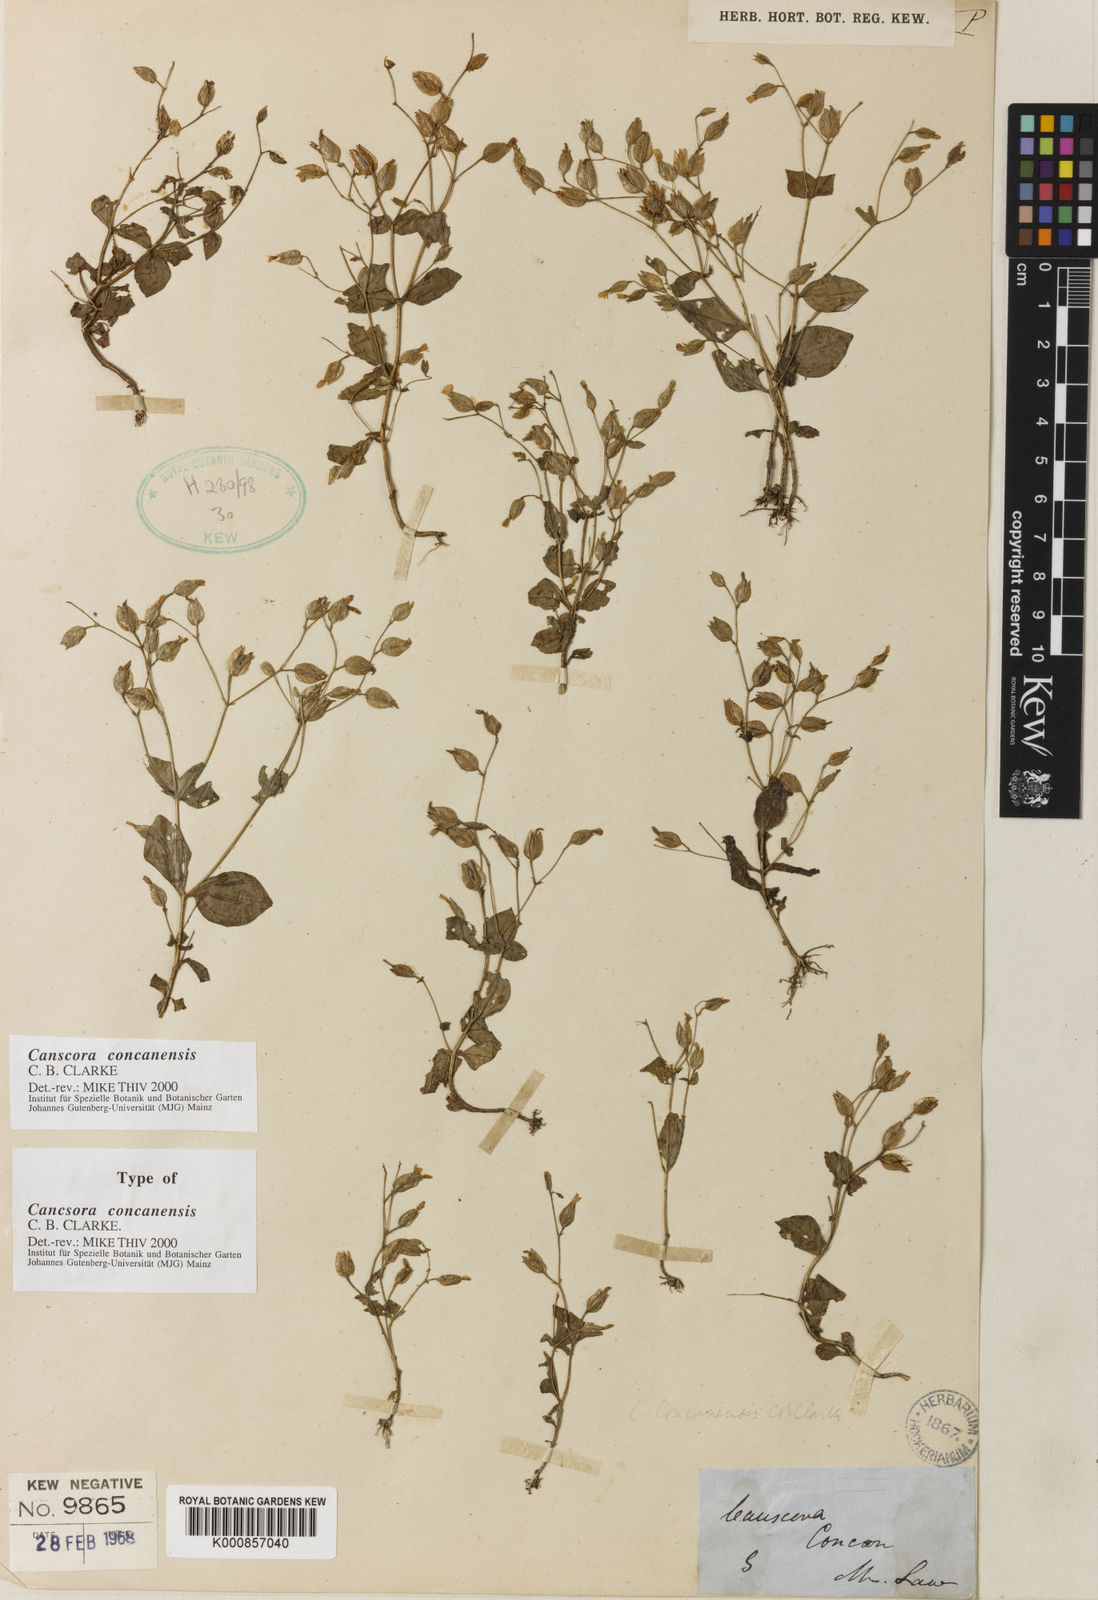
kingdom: Plantae
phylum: Tracheophyta
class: Magnoliopsida
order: Gentianales
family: Gentianaceae
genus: Canscora
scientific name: Canscora concanensis
